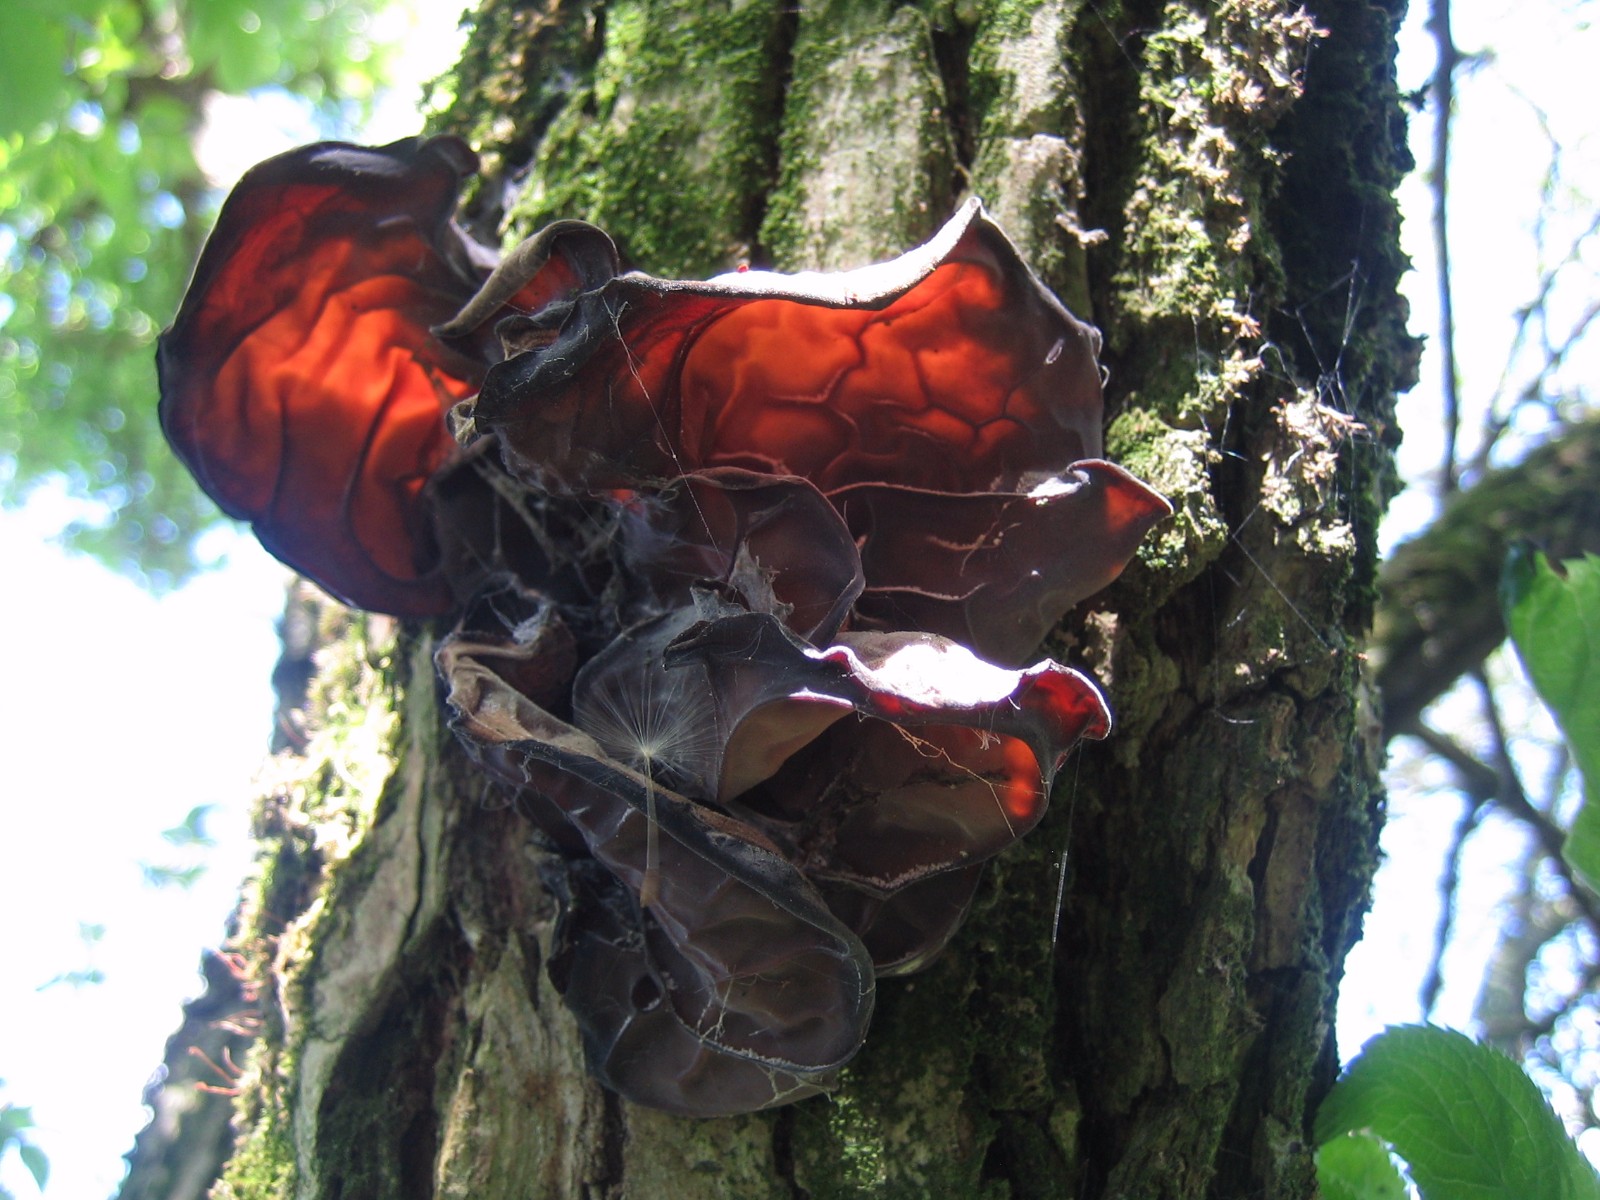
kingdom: Fungi
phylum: Basidiomycota
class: Agaricomycetes
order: Auriculariales
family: Auriculariaceae
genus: Auricularia
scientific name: Auricularia auricula-judae
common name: almindelig judasøre
